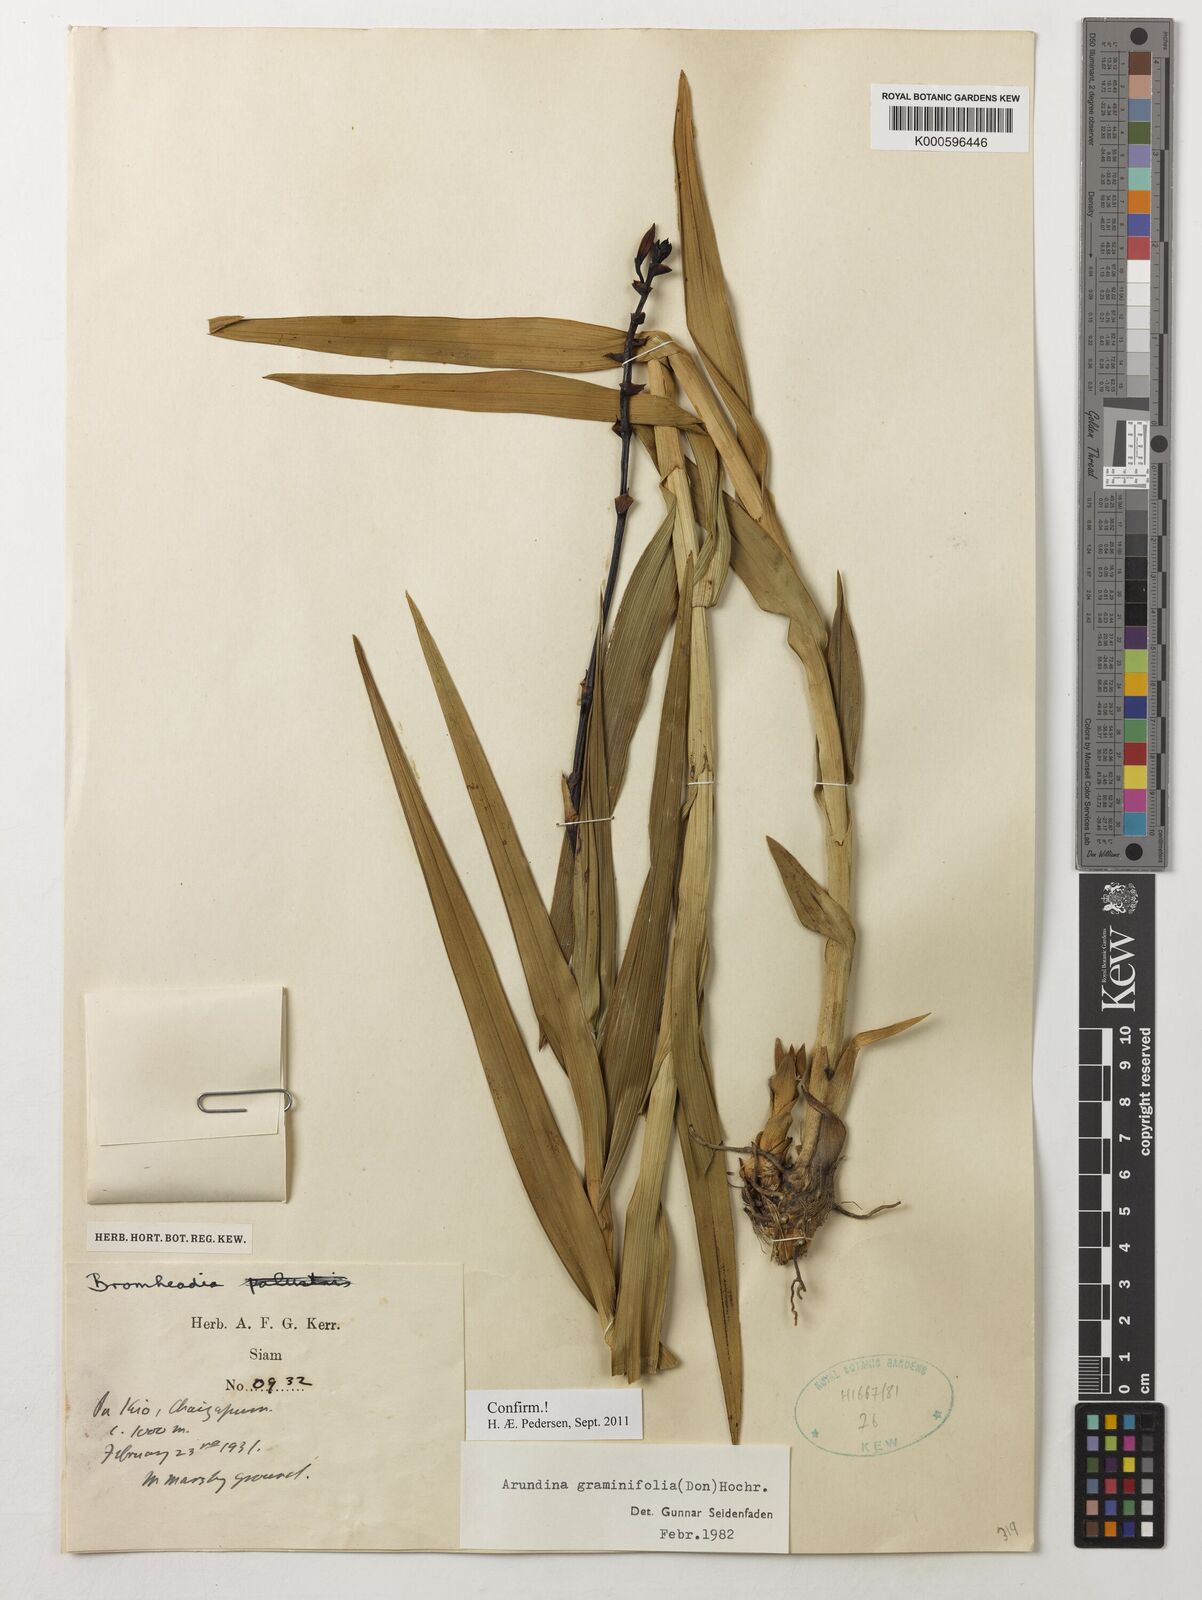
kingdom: Plantae
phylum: Tracheophyta
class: Liliopsida
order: Asparagales
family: Orchidaceae
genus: Arundina
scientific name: Arundina graminifolia
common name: Bamboo orchid
